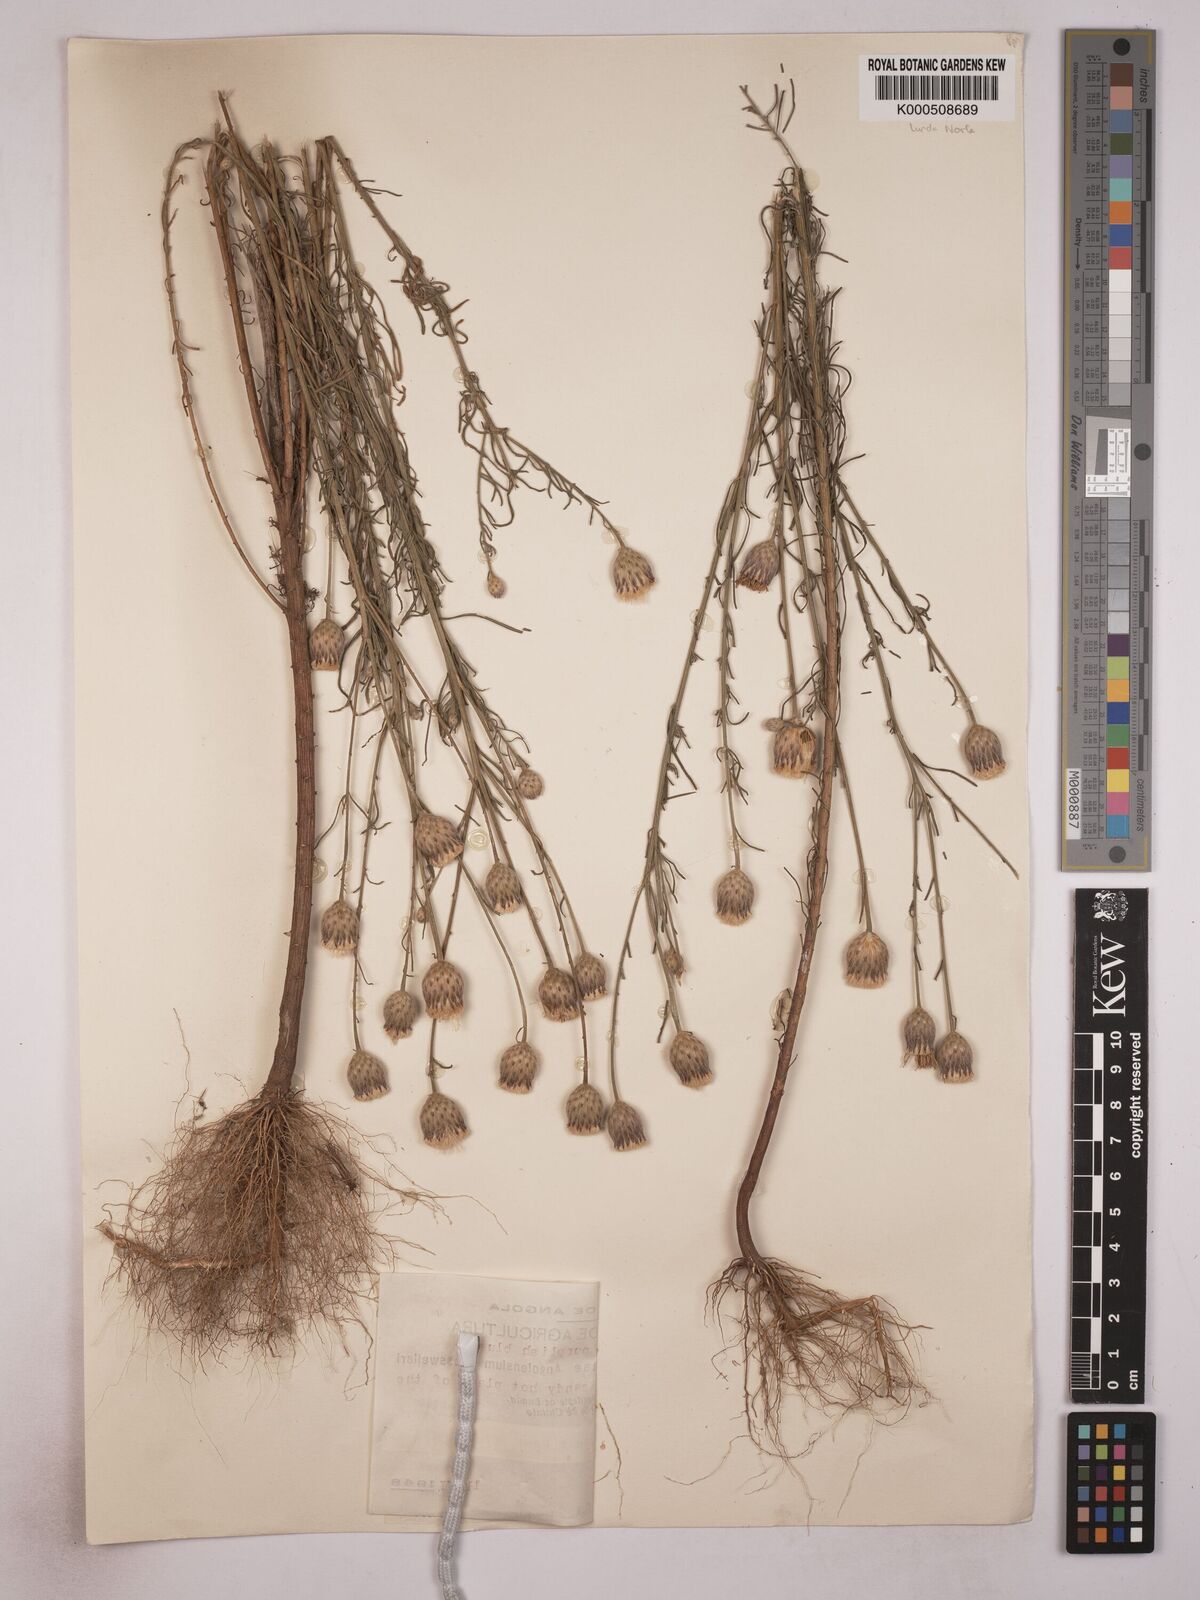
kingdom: Plantae
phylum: Tracheophyta
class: Magnoliopsida
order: Asterales
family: Asteraceae
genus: Crystallopollen
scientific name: Crystallopollen serratuloides
